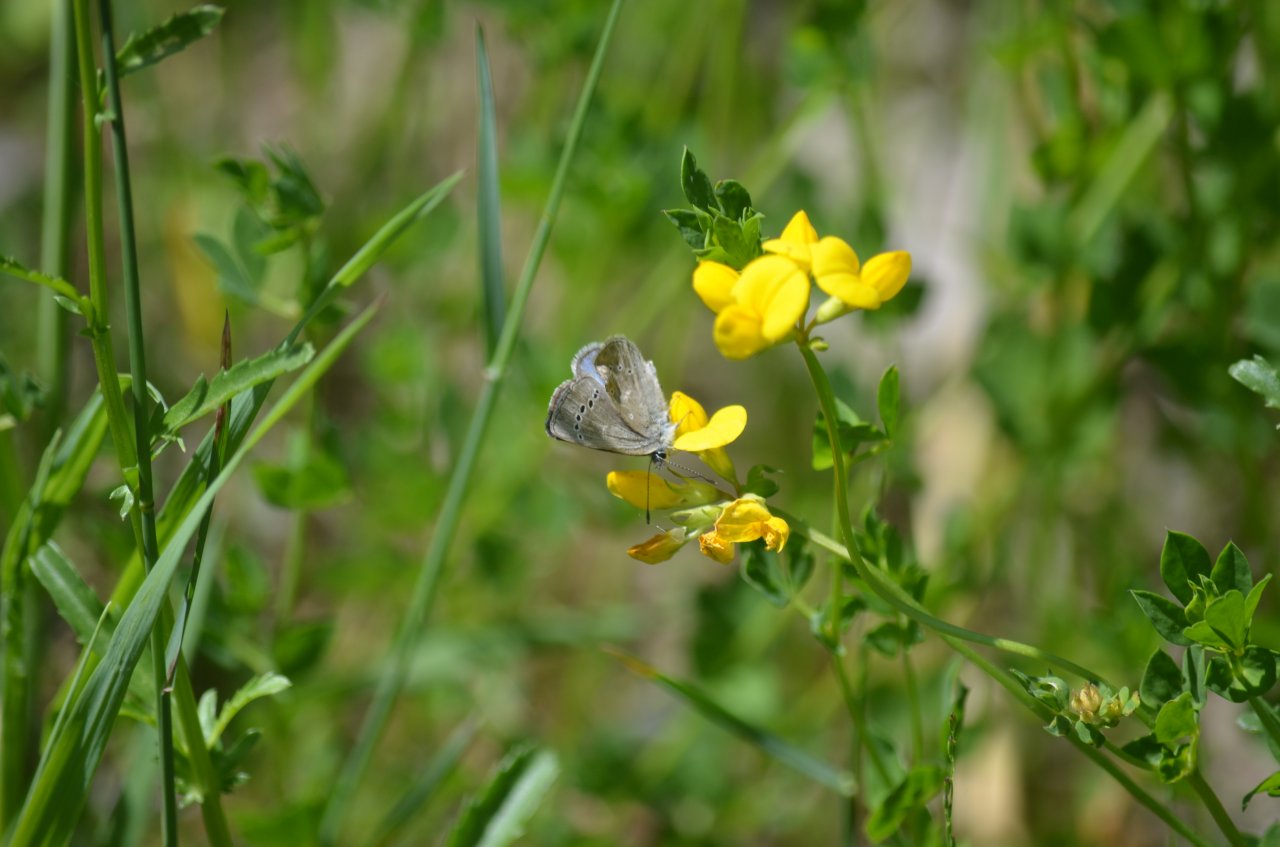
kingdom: Animalia
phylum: Arthropoda
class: Insecta
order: Lepidoptera
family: Lycaenidae
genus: Glaucopsyche
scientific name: Glaucopsyche lygdamus
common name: Silvery Blue
